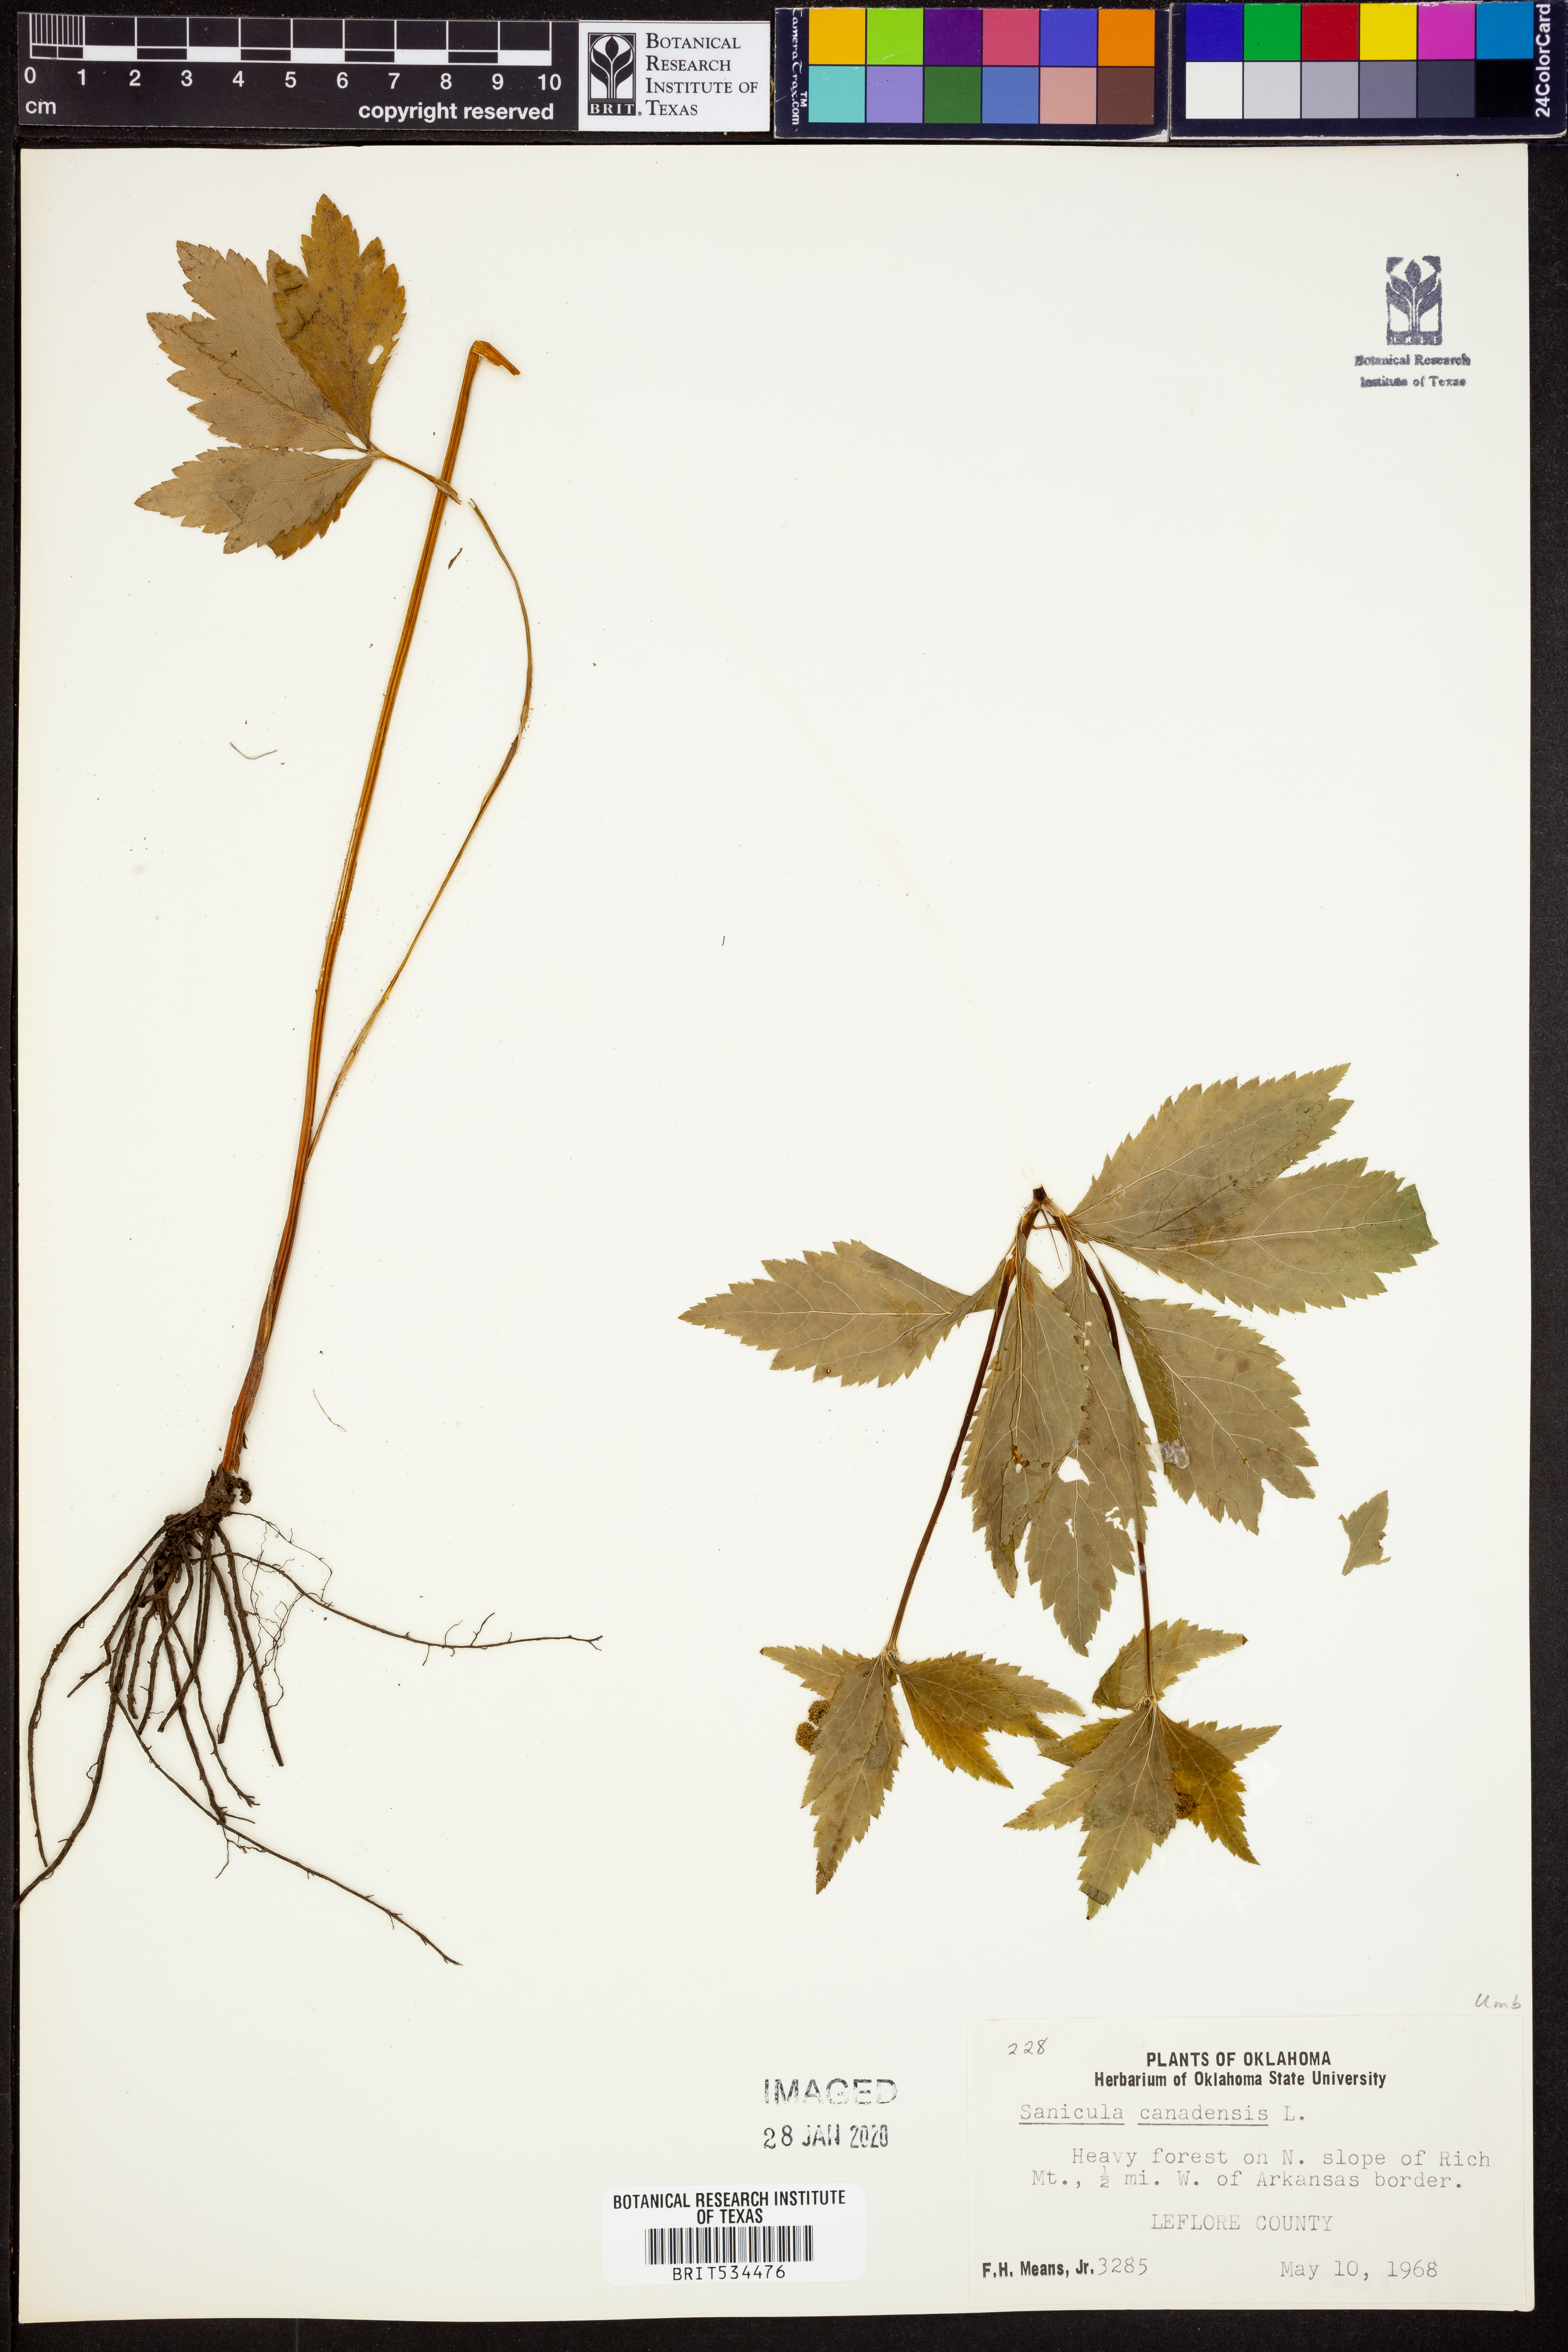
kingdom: Plantae
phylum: Tracheophyta
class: Magnoliopsida
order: Apiales
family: Apiaceae
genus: Sanicula
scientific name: Sanicula canadensis
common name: Canada sanicle
